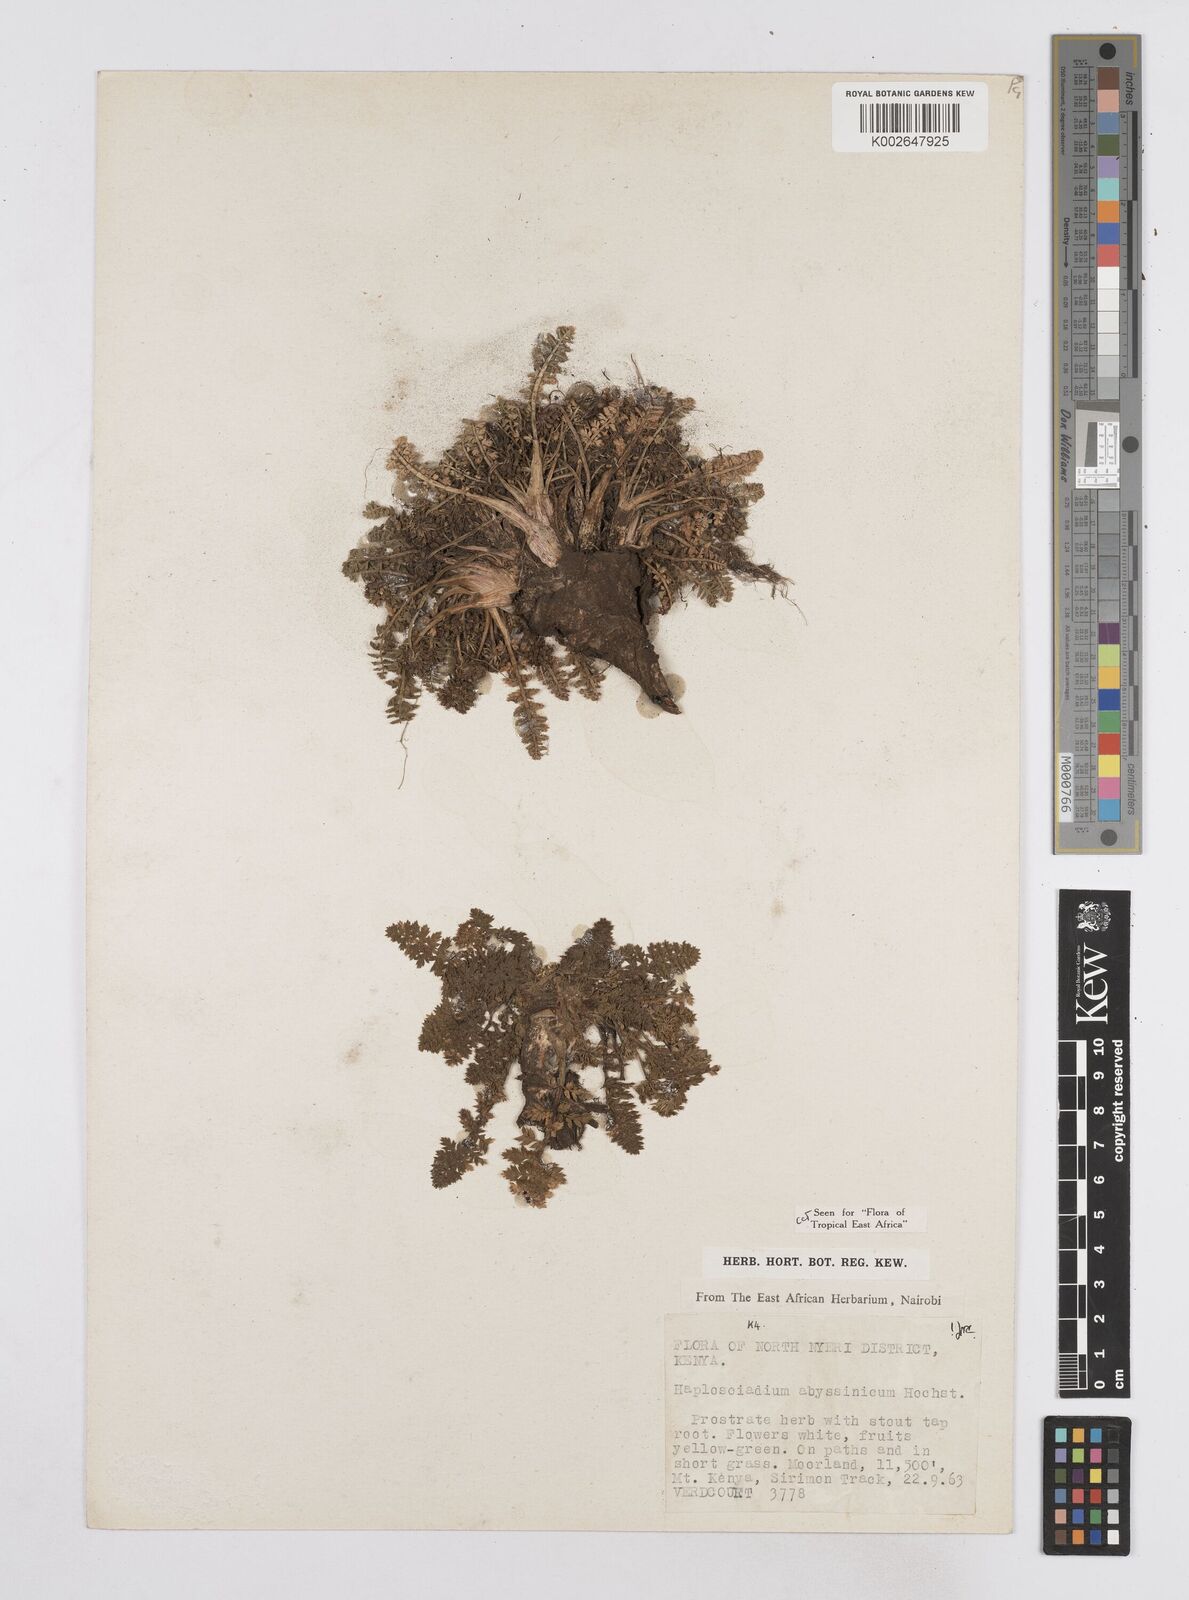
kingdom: Plantae
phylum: Tracheophyta
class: Magnoliopsida
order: Apiales
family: Apiaceae
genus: Haplosciadium
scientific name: Haplosciadium abyssinicum
